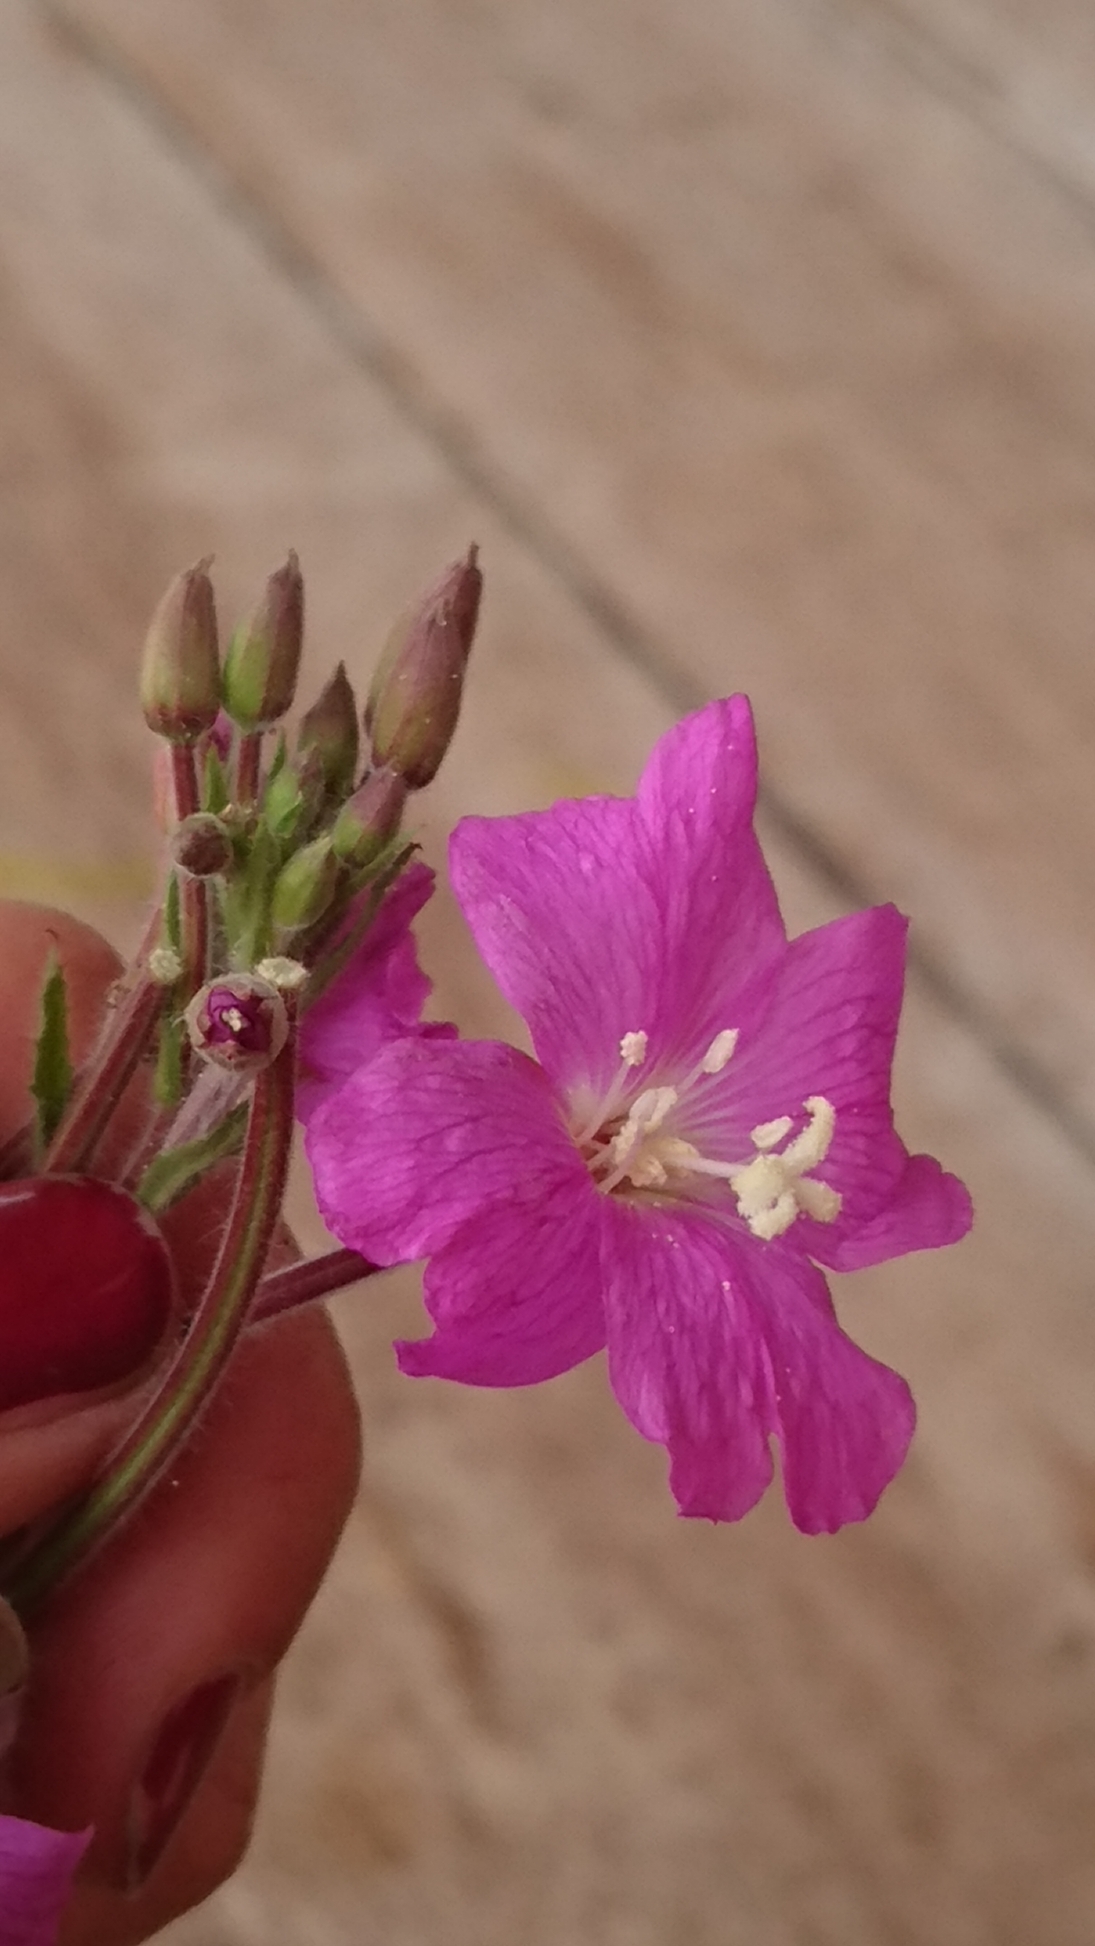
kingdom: Plantae
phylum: Tracheophyta
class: Magnoliopsida
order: Myrtales
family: Onagraceae
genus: Epilobium
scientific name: Epilobium hirsutum
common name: Lådden dueurt
